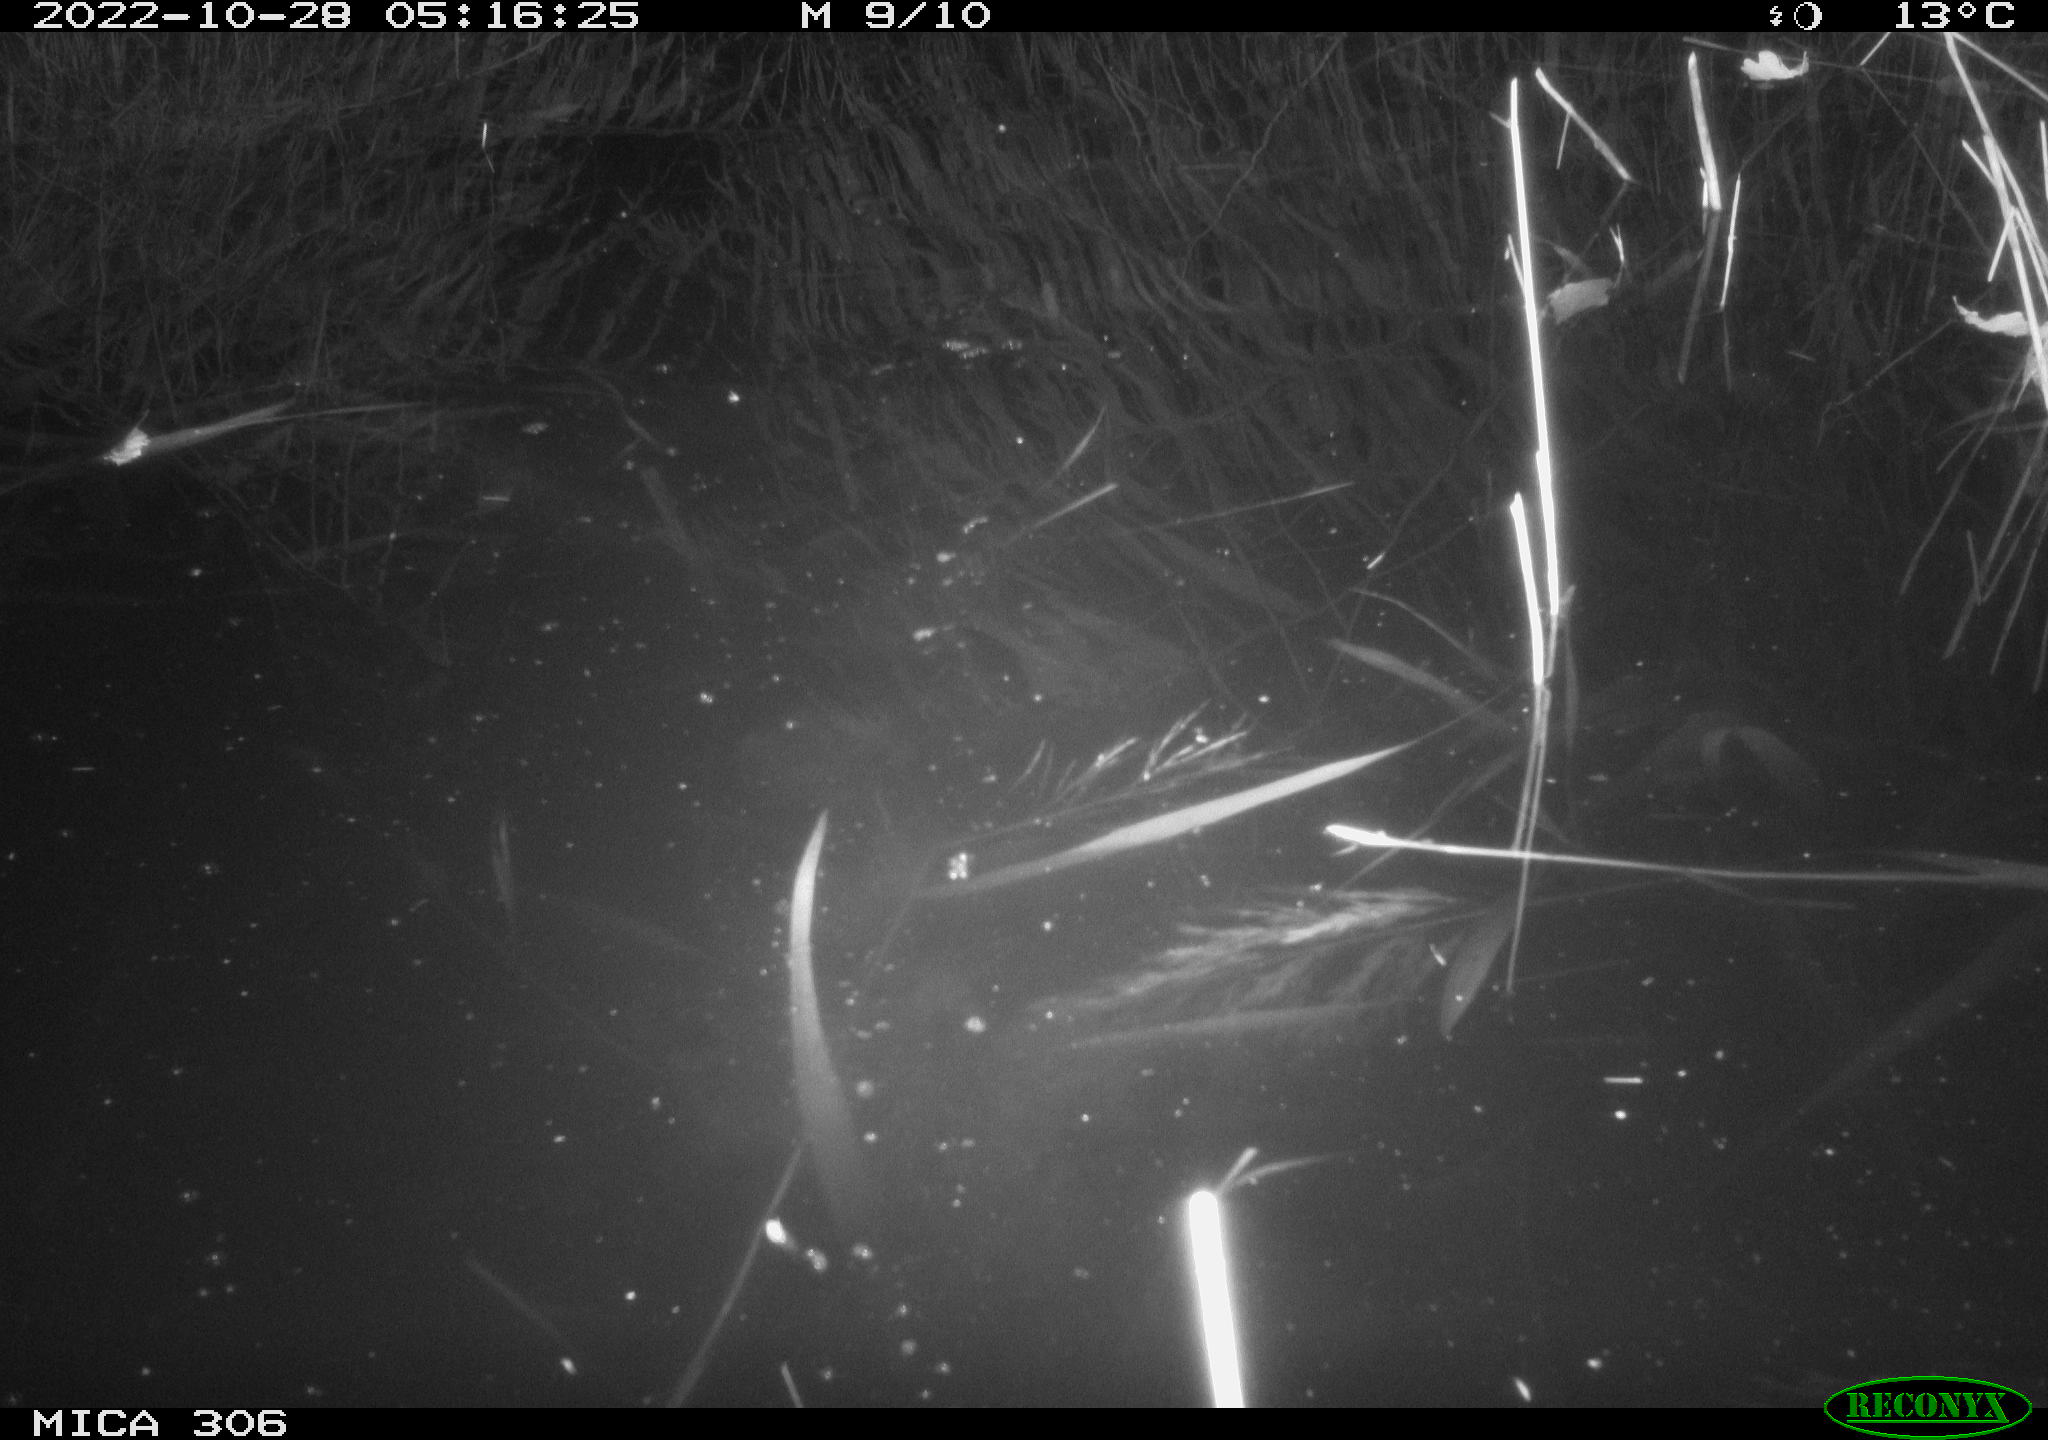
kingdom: Animalia
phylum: Chordata
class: Mammalia
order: Rodentia
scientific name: Rodentia
